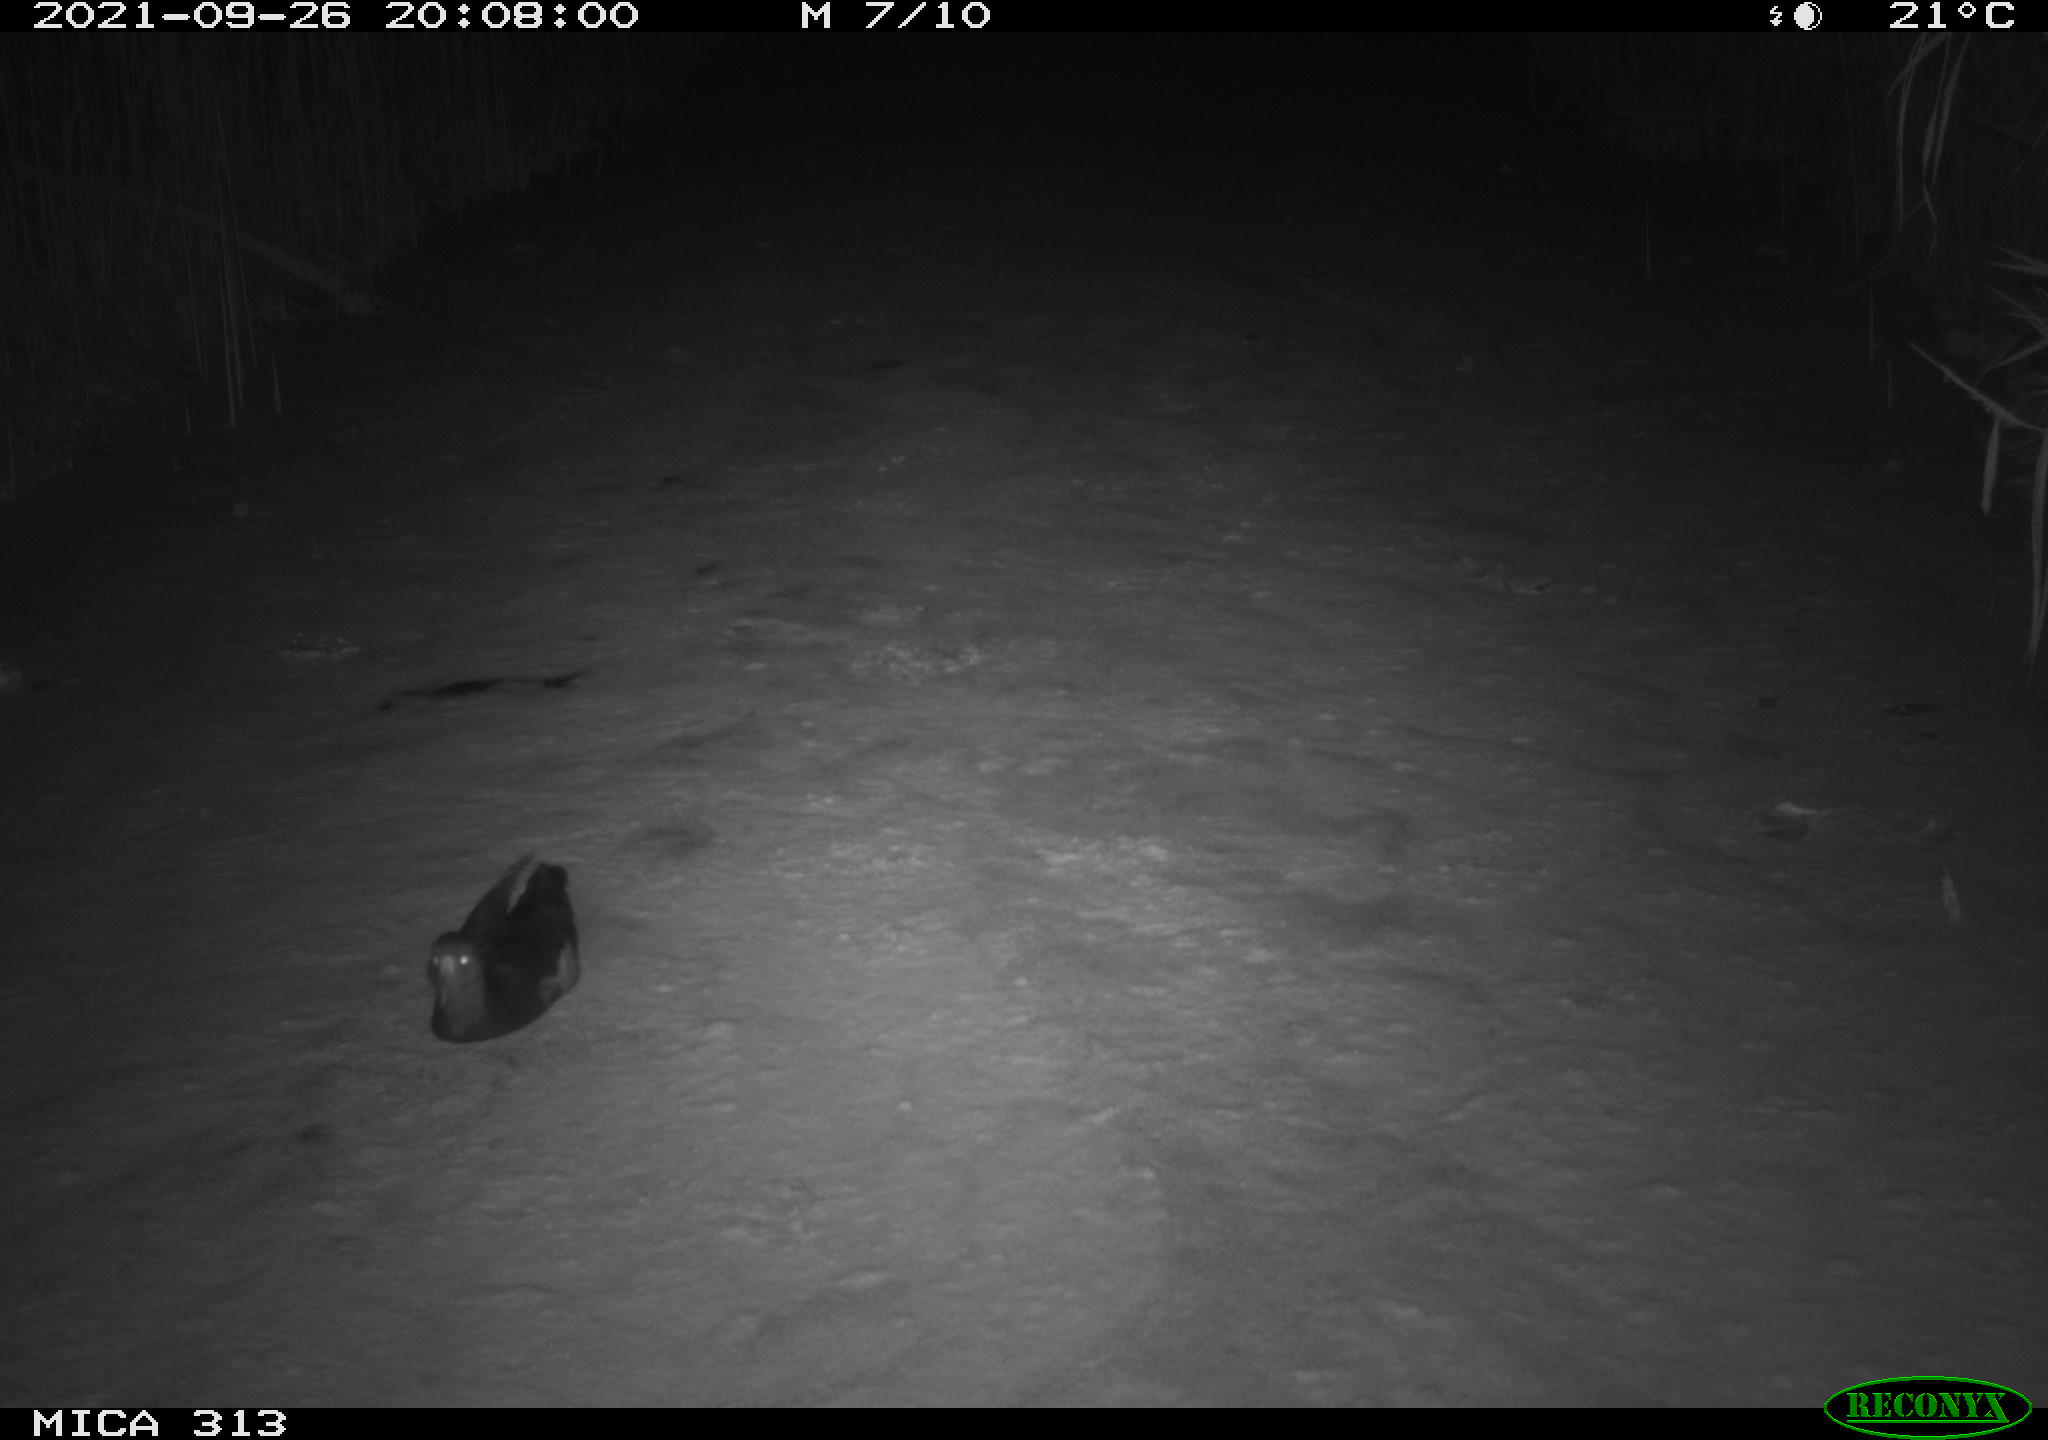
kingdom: Animalia
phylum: Chordata
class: Aves
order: Gruiformes
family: Rallidae
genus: Gallinula
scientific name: Gallinula chloropus
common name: Common moorhen
